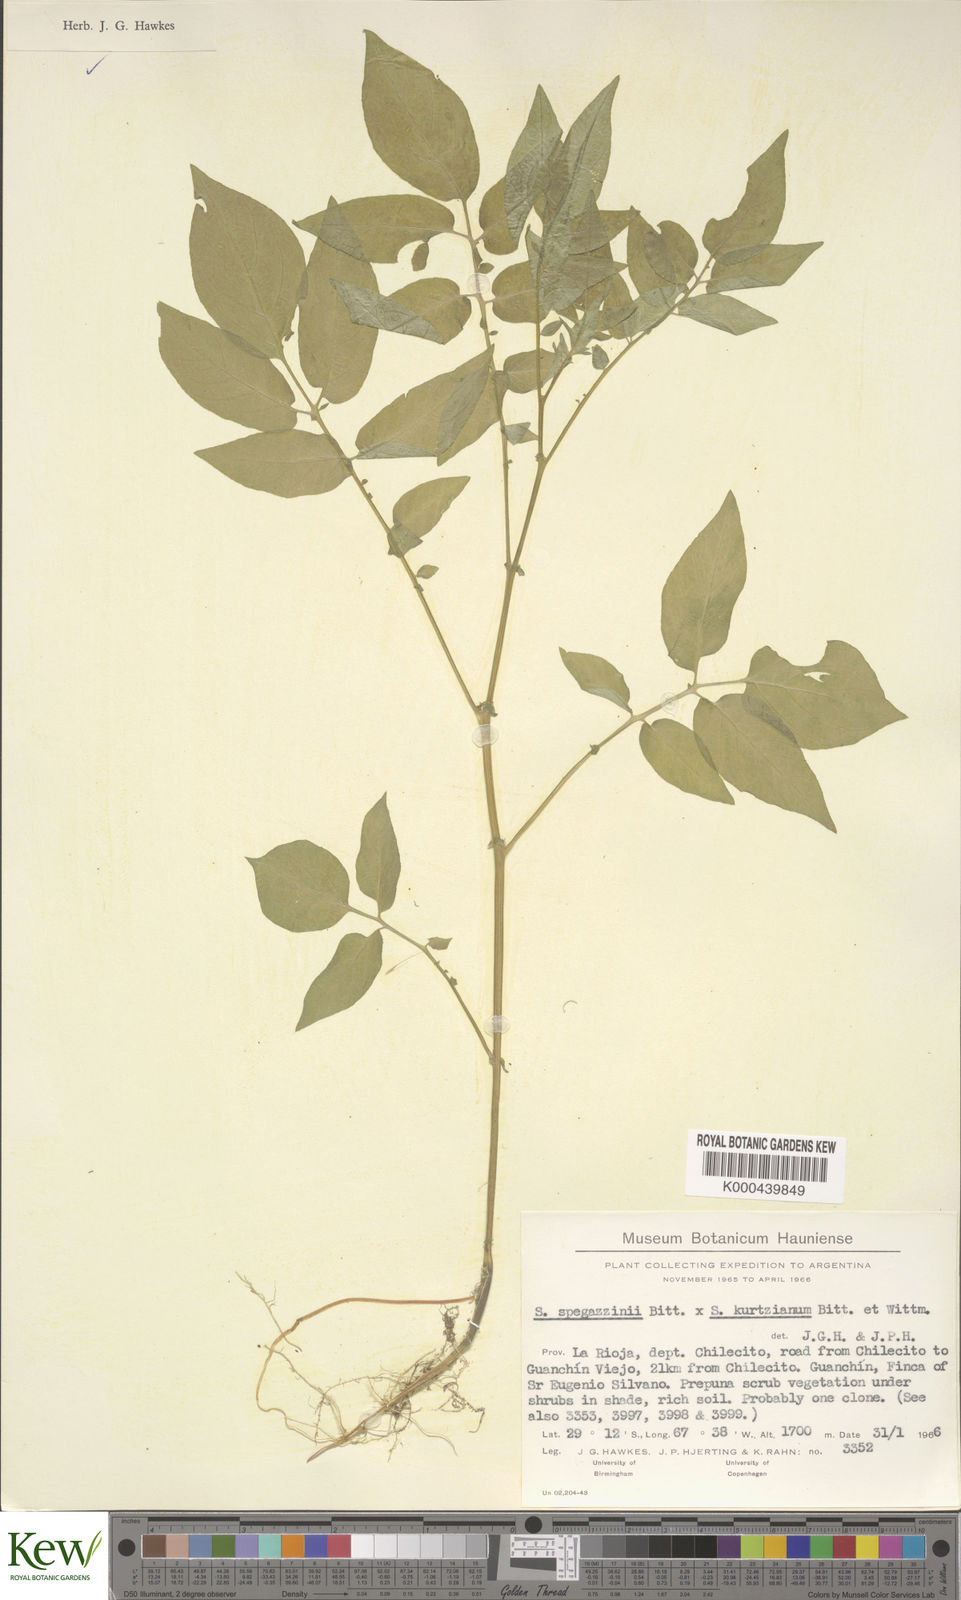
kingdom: Plantae
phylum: Tracheophyta
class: Magnoliopsida
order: Solanales
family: Solanaceae
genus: Solanum
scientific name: Solanum brevicaule
